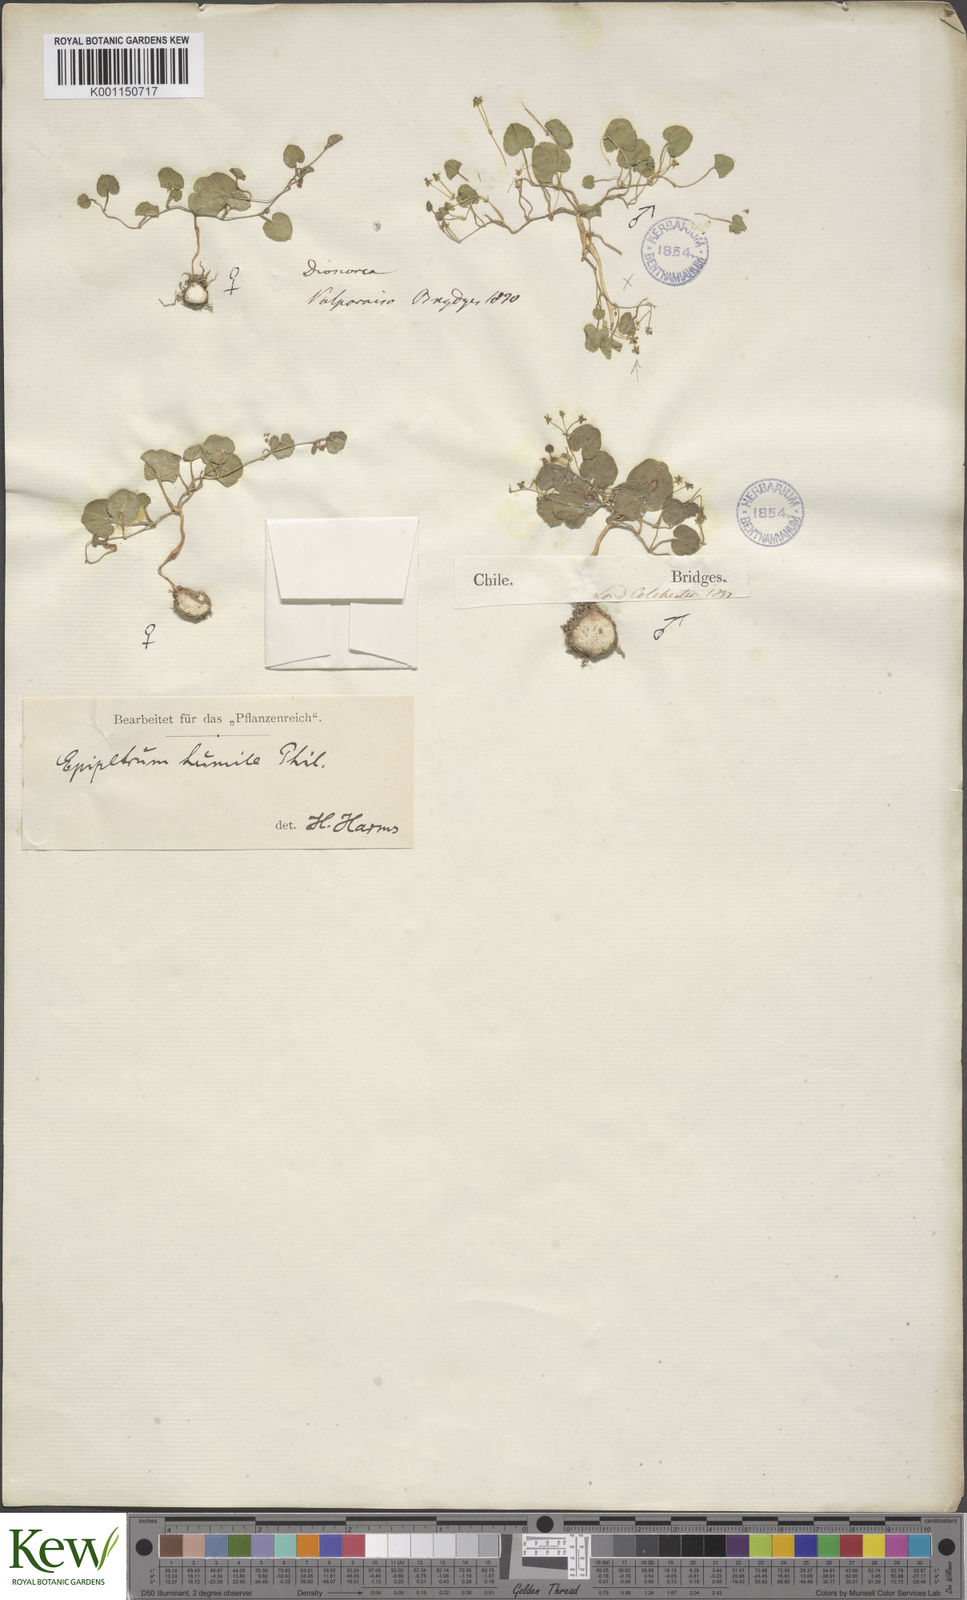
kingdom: Plantae
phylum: Tracheophyta
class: Liliopsida
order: Dioscoreales
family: Dioscoreaceae
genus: Dioscorea
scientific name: Dioscorea humilis
